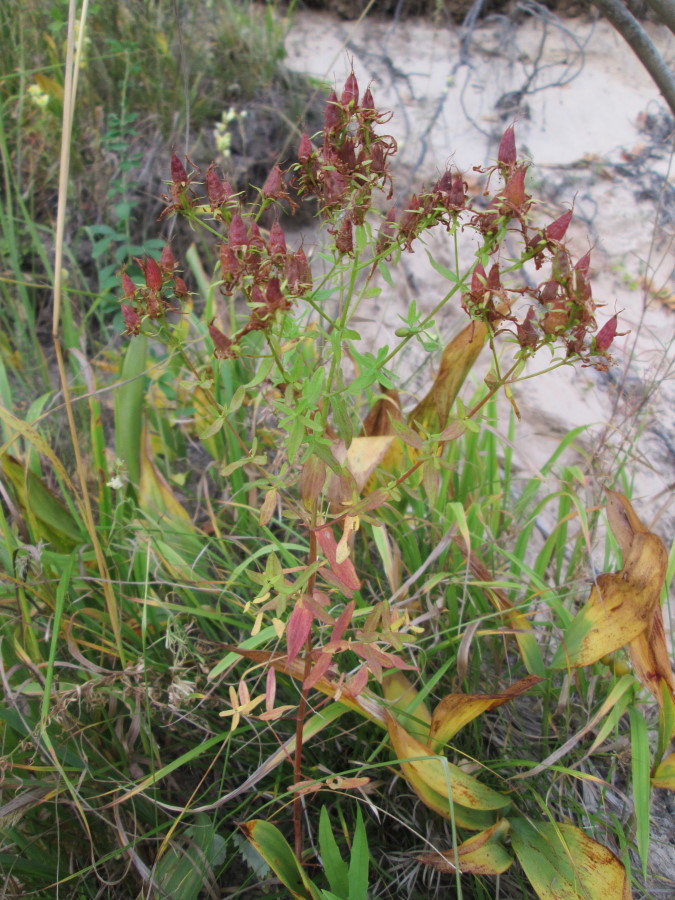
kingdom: Plantae
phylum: Tracheophyta
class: Magnoliopsida
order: Malpighiales
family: Hypericaceae
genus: Hypericum
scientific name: Hypericum perforatum
